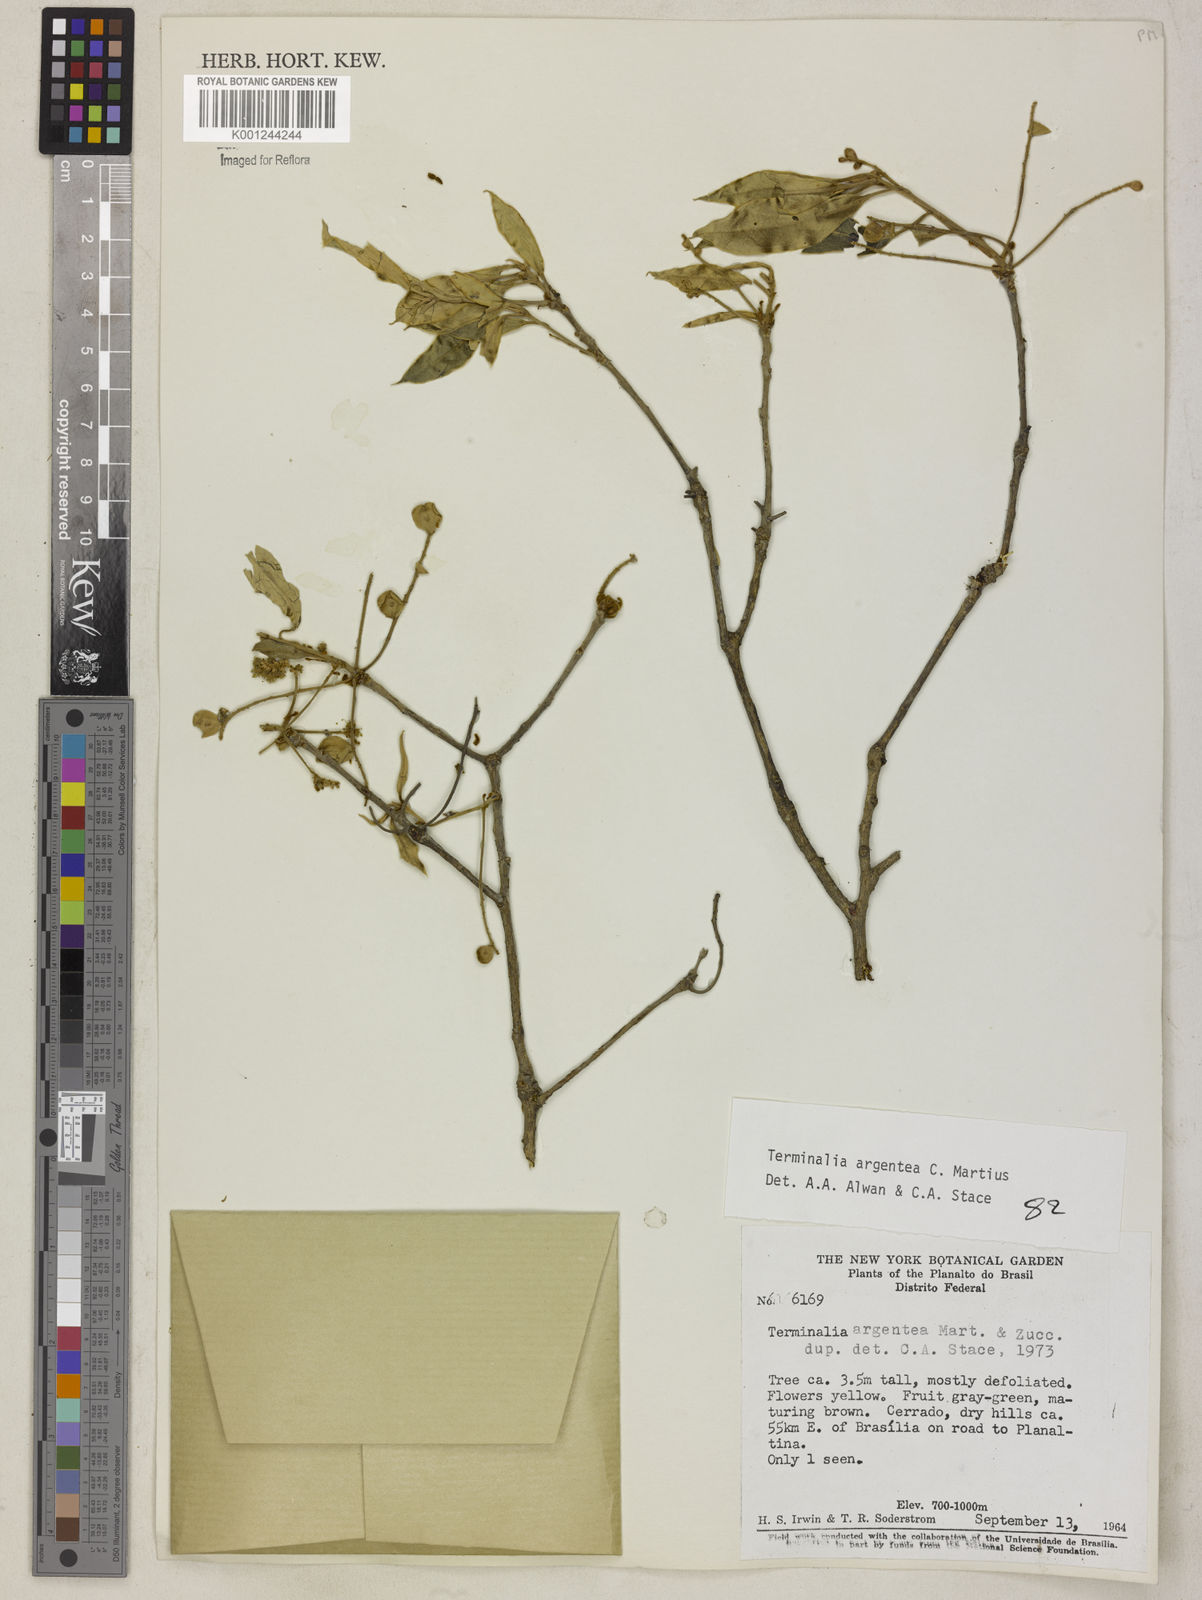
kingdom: Plantae
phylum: Tracheophyta
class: Magnoliopsida
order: Myrtales
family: Combretaceae
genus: Terminalia
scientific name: Terminalia argentea
